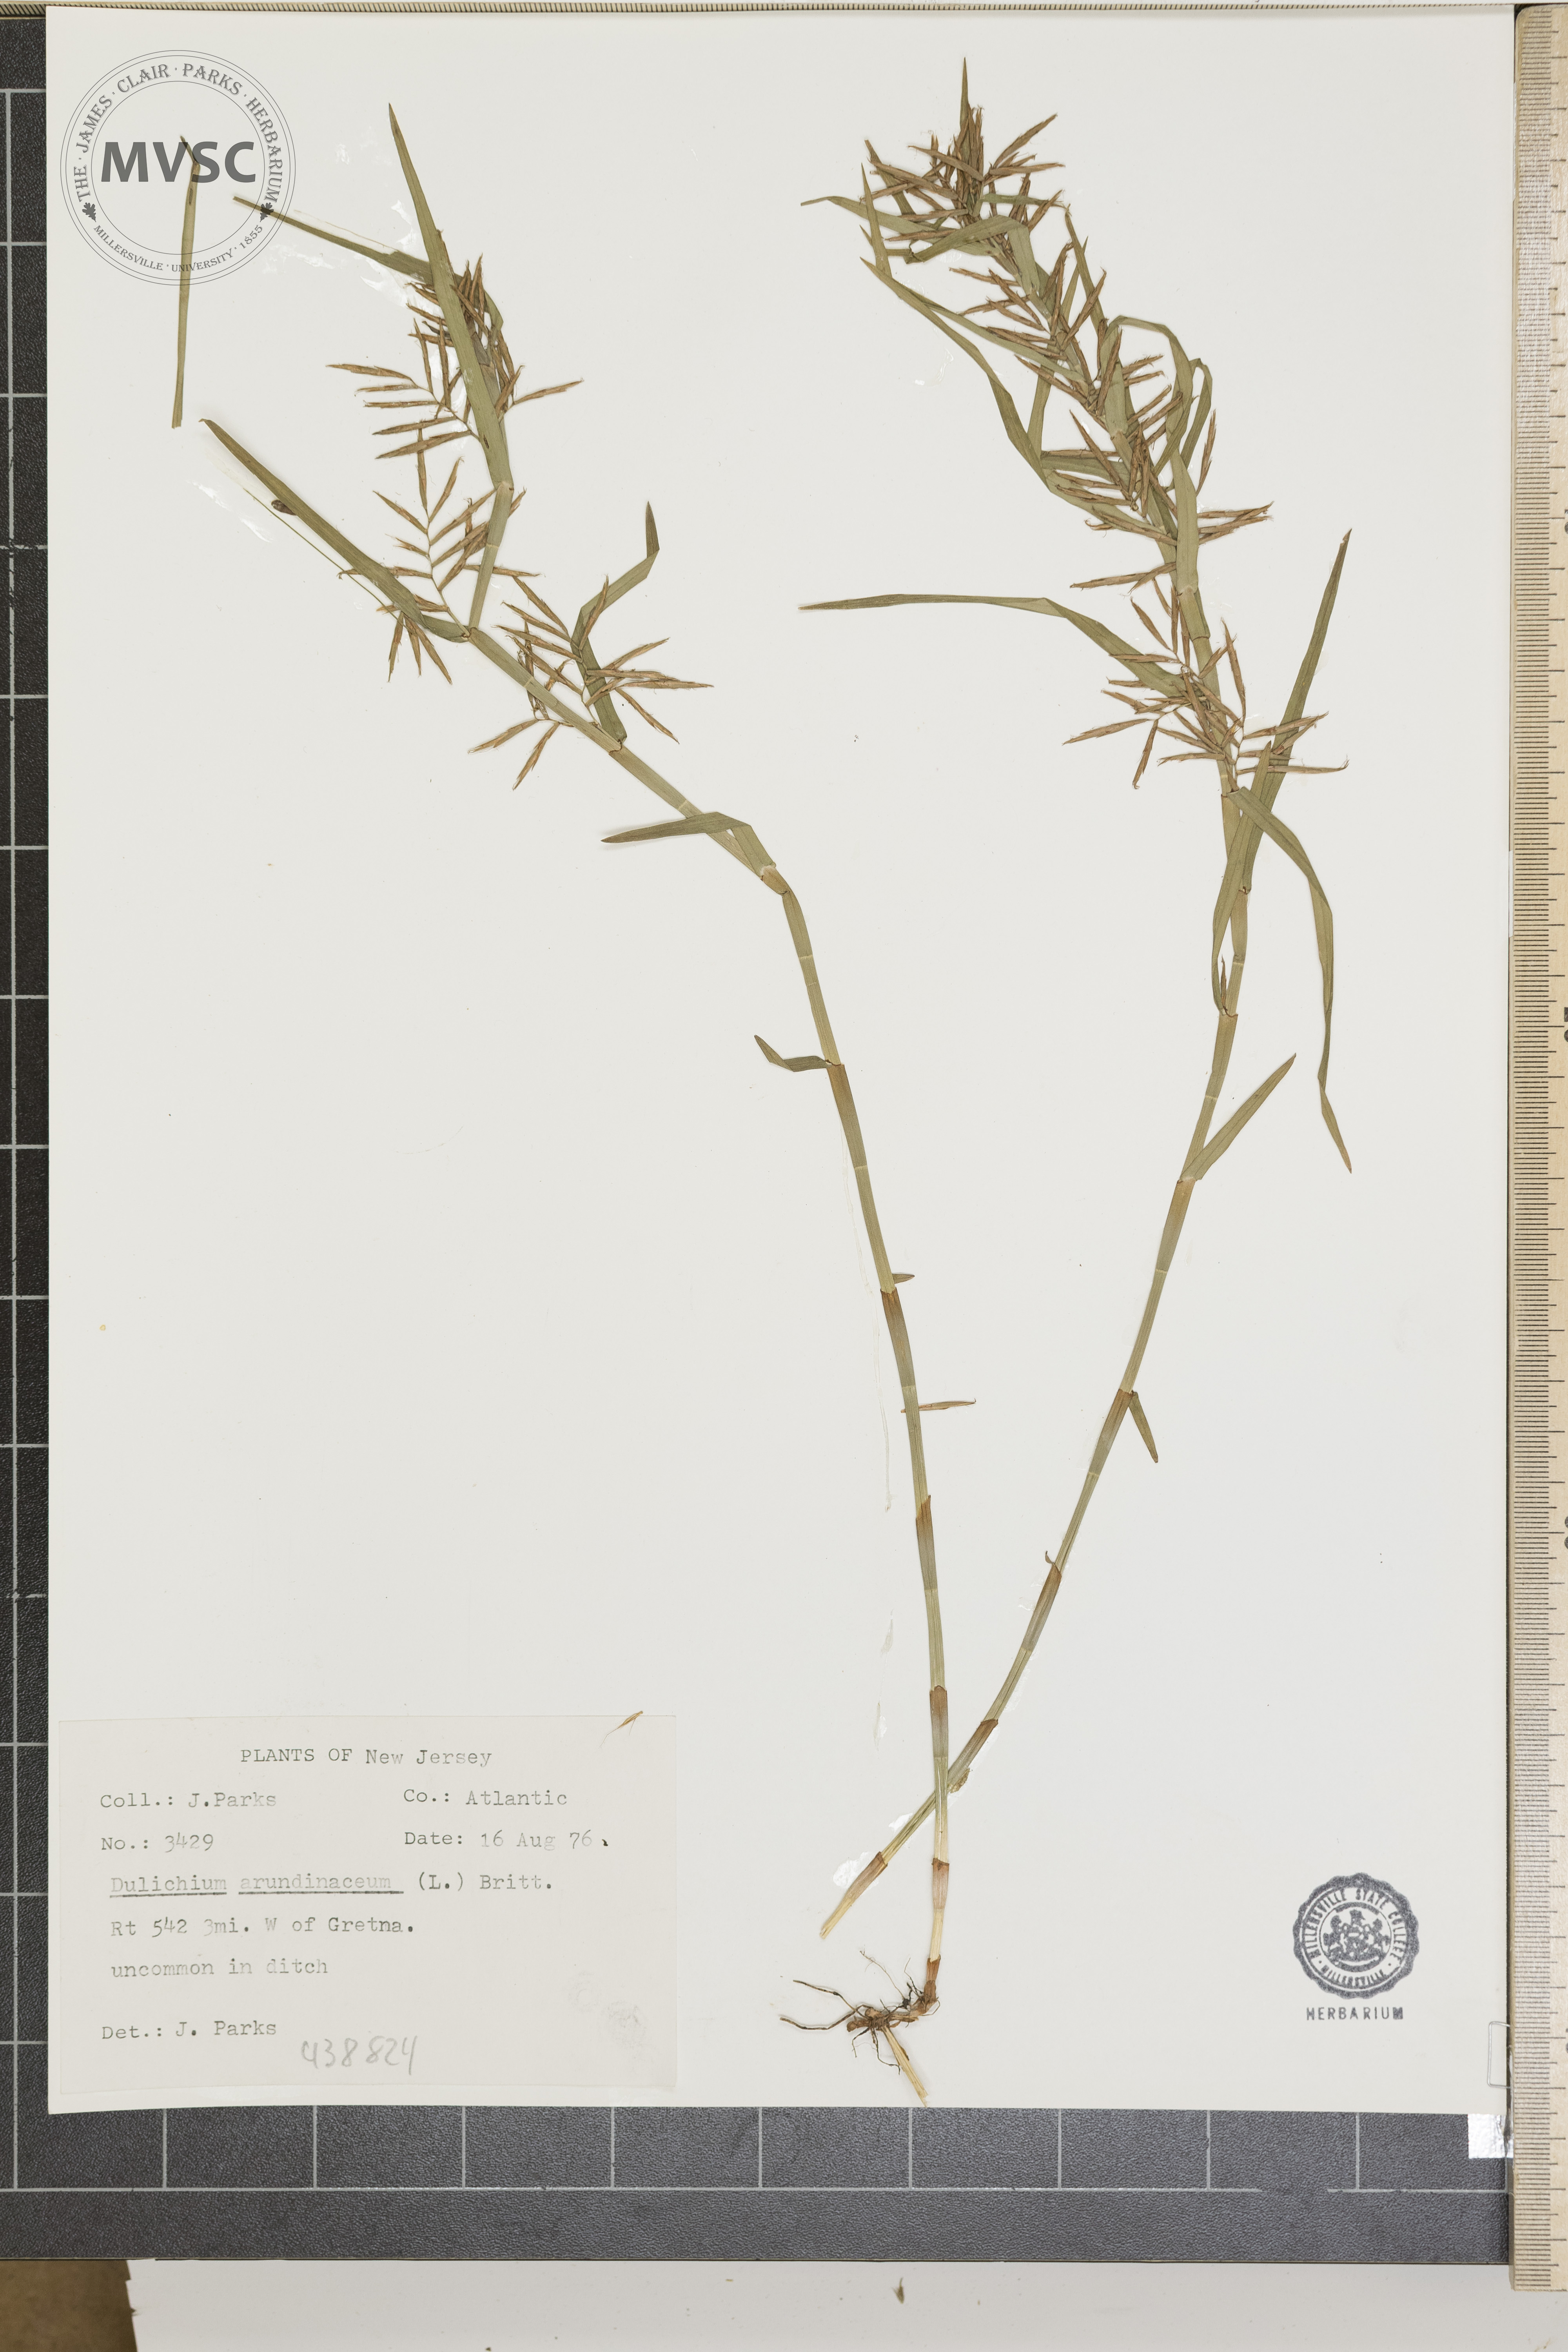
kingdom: Plantae
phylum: Tracheophyta
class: Liliopsida
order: Poales
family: Cyperaceae
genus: Dulichium
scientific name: Dulichium arundinaceum
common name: Three-way sedge
